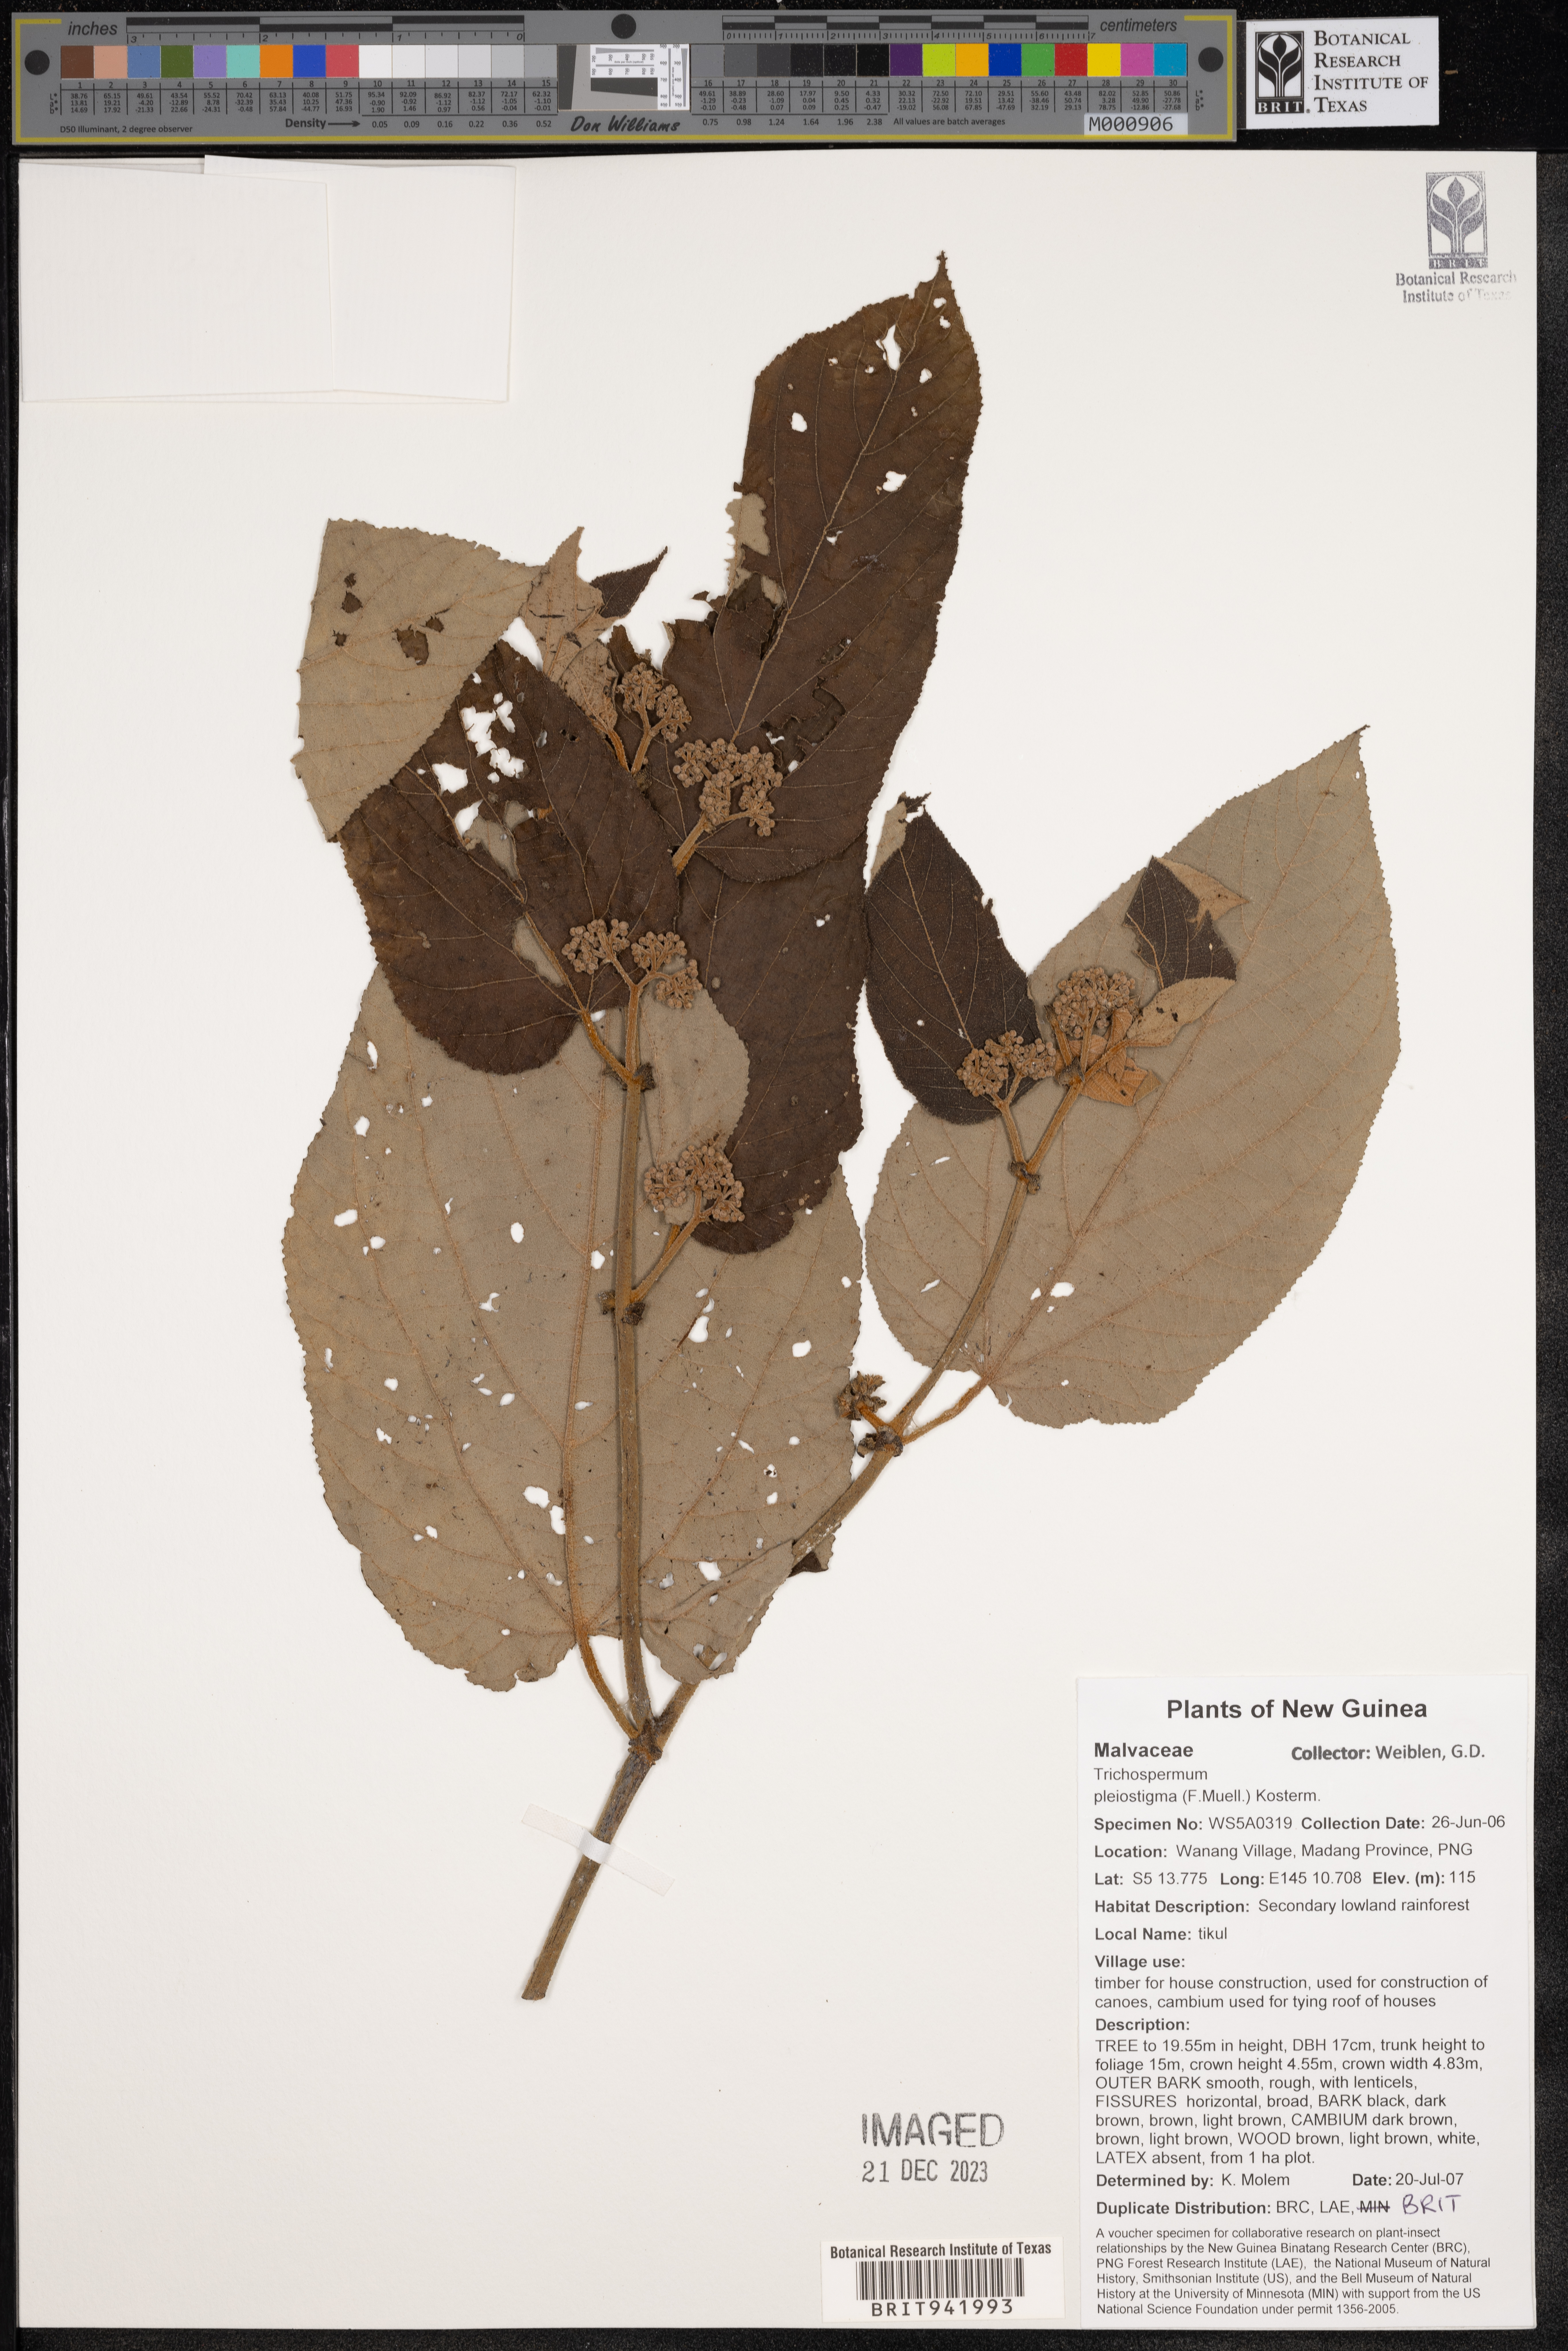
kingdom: Plantae
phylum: Tracheophyta
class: Magnoliopsida
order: Malvales
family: Malvaceae
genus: Trichospermum
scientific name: Trichospermum
